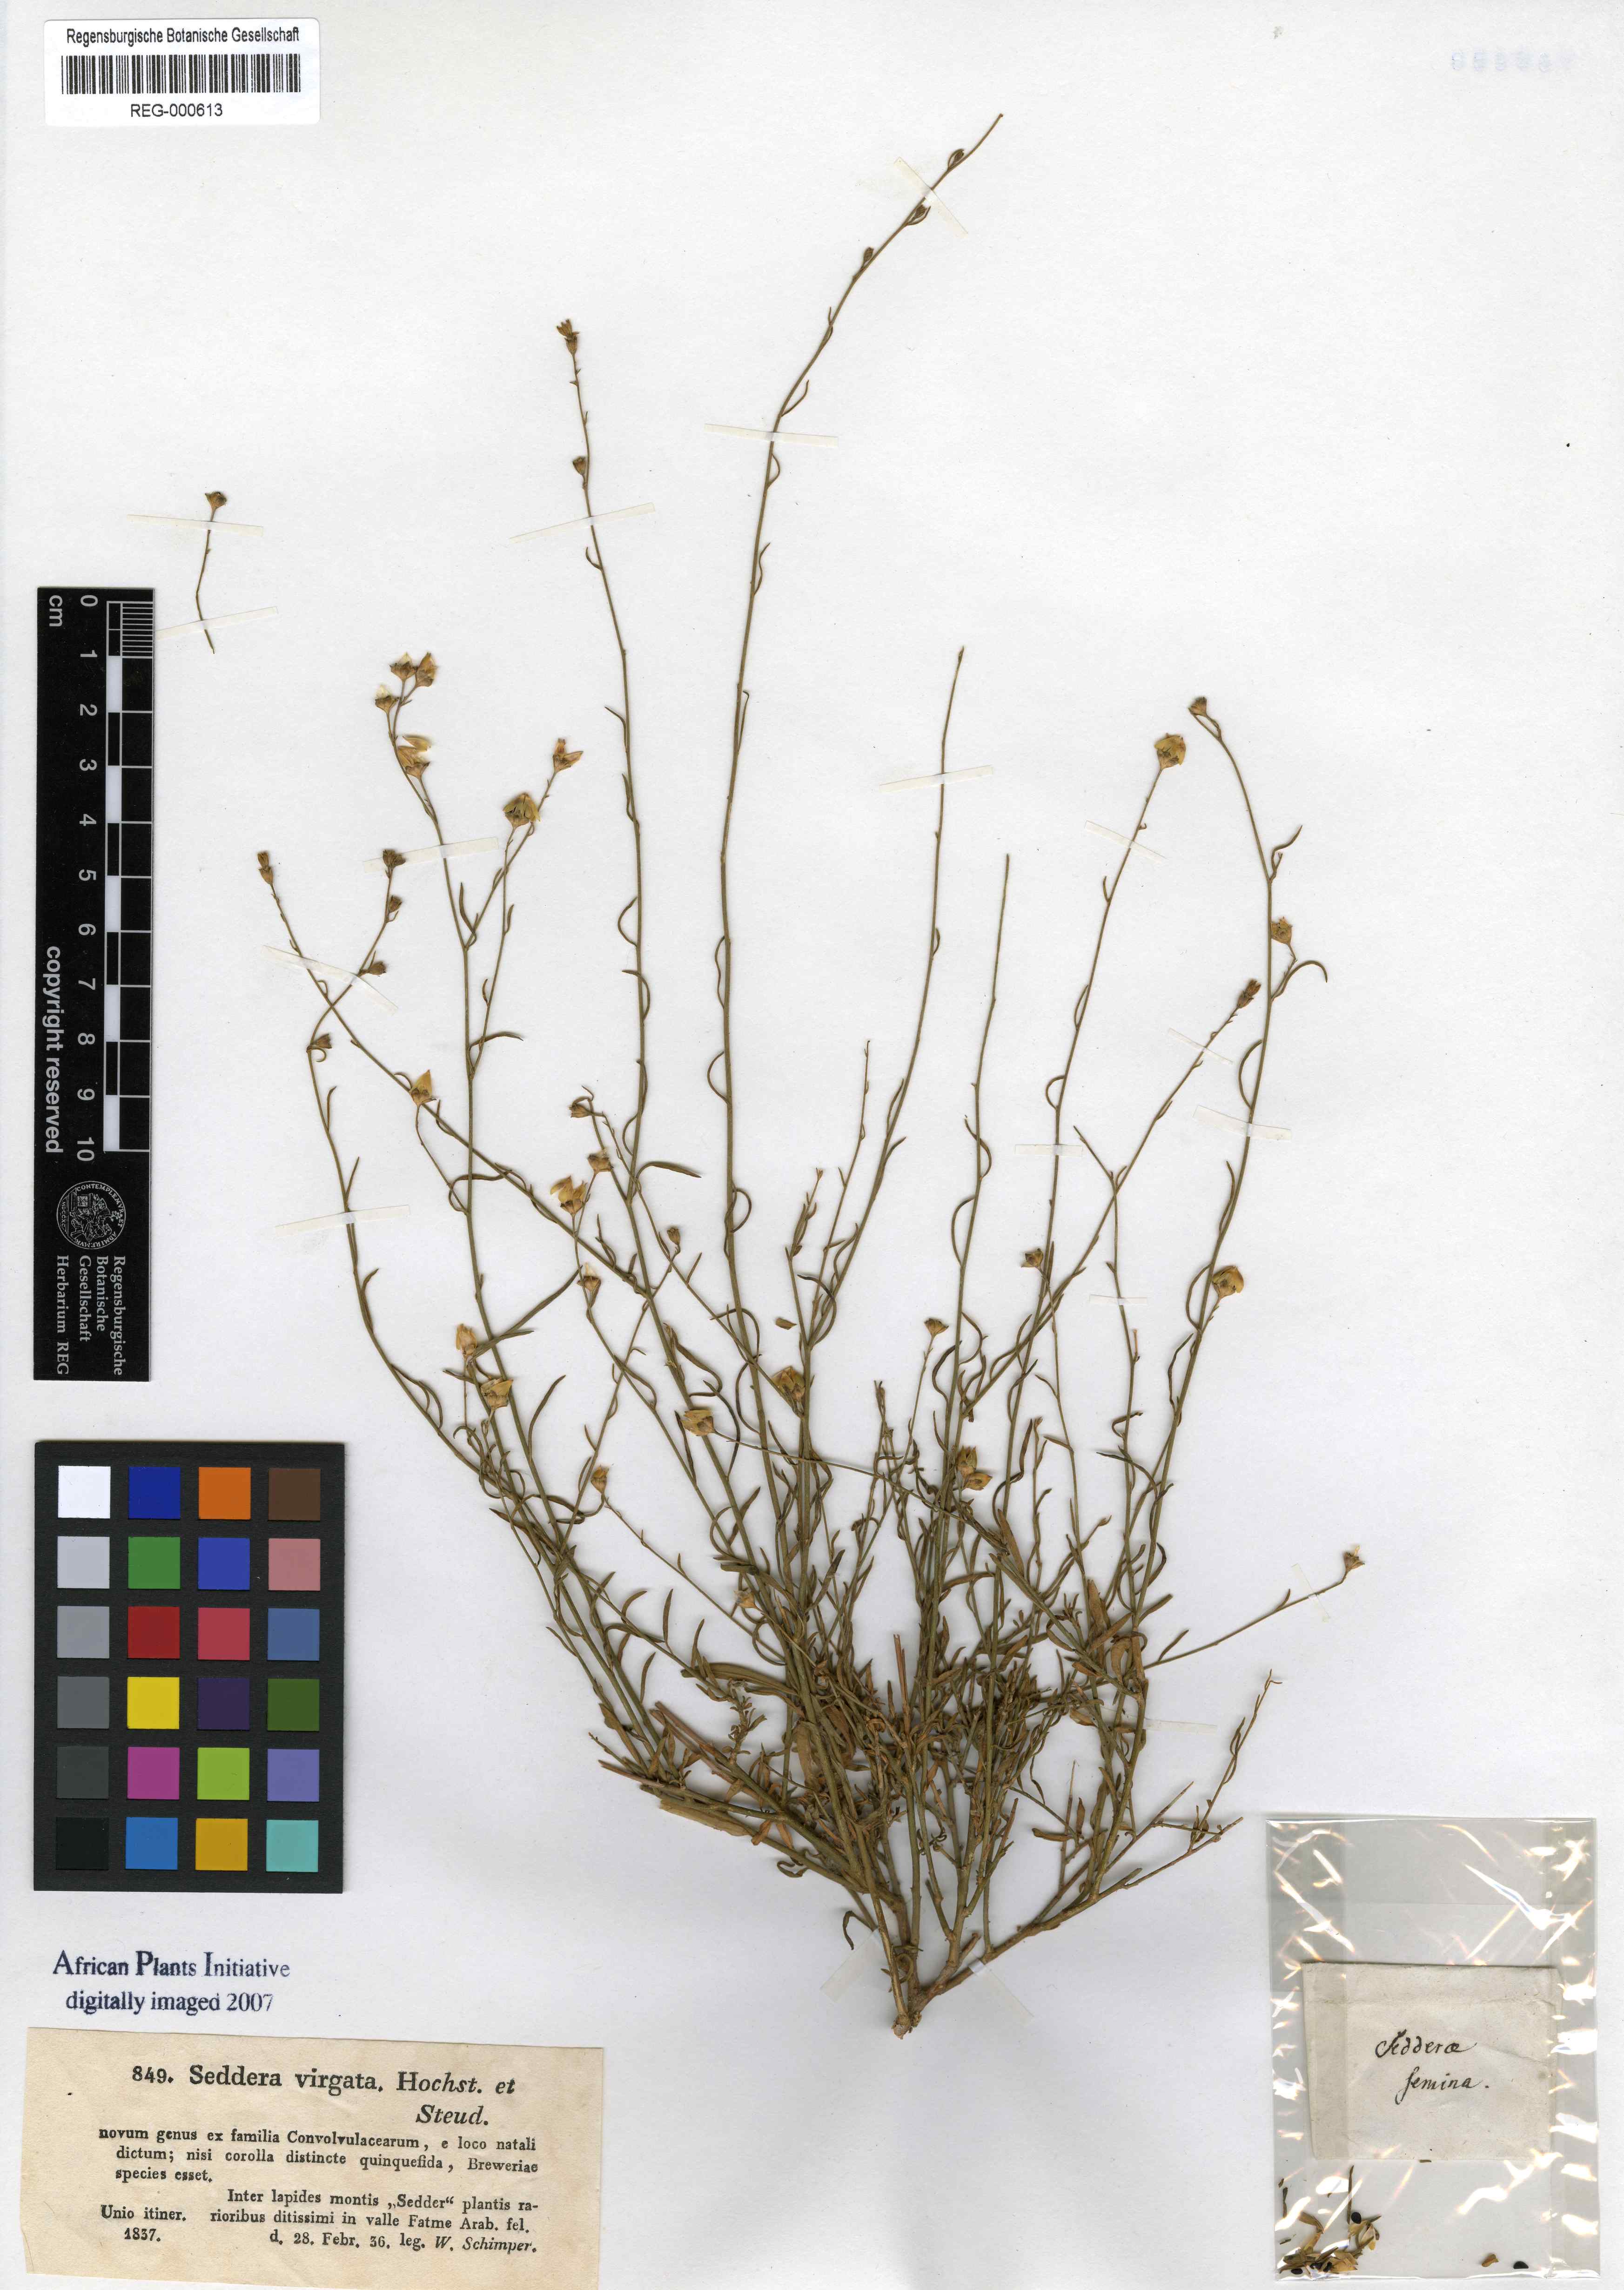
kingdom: Plantae
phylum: Tracheophyta
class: Magnoliopsida
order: Solanales
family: Convolvulaceae
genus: Seddera
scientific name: Seddera virgata
